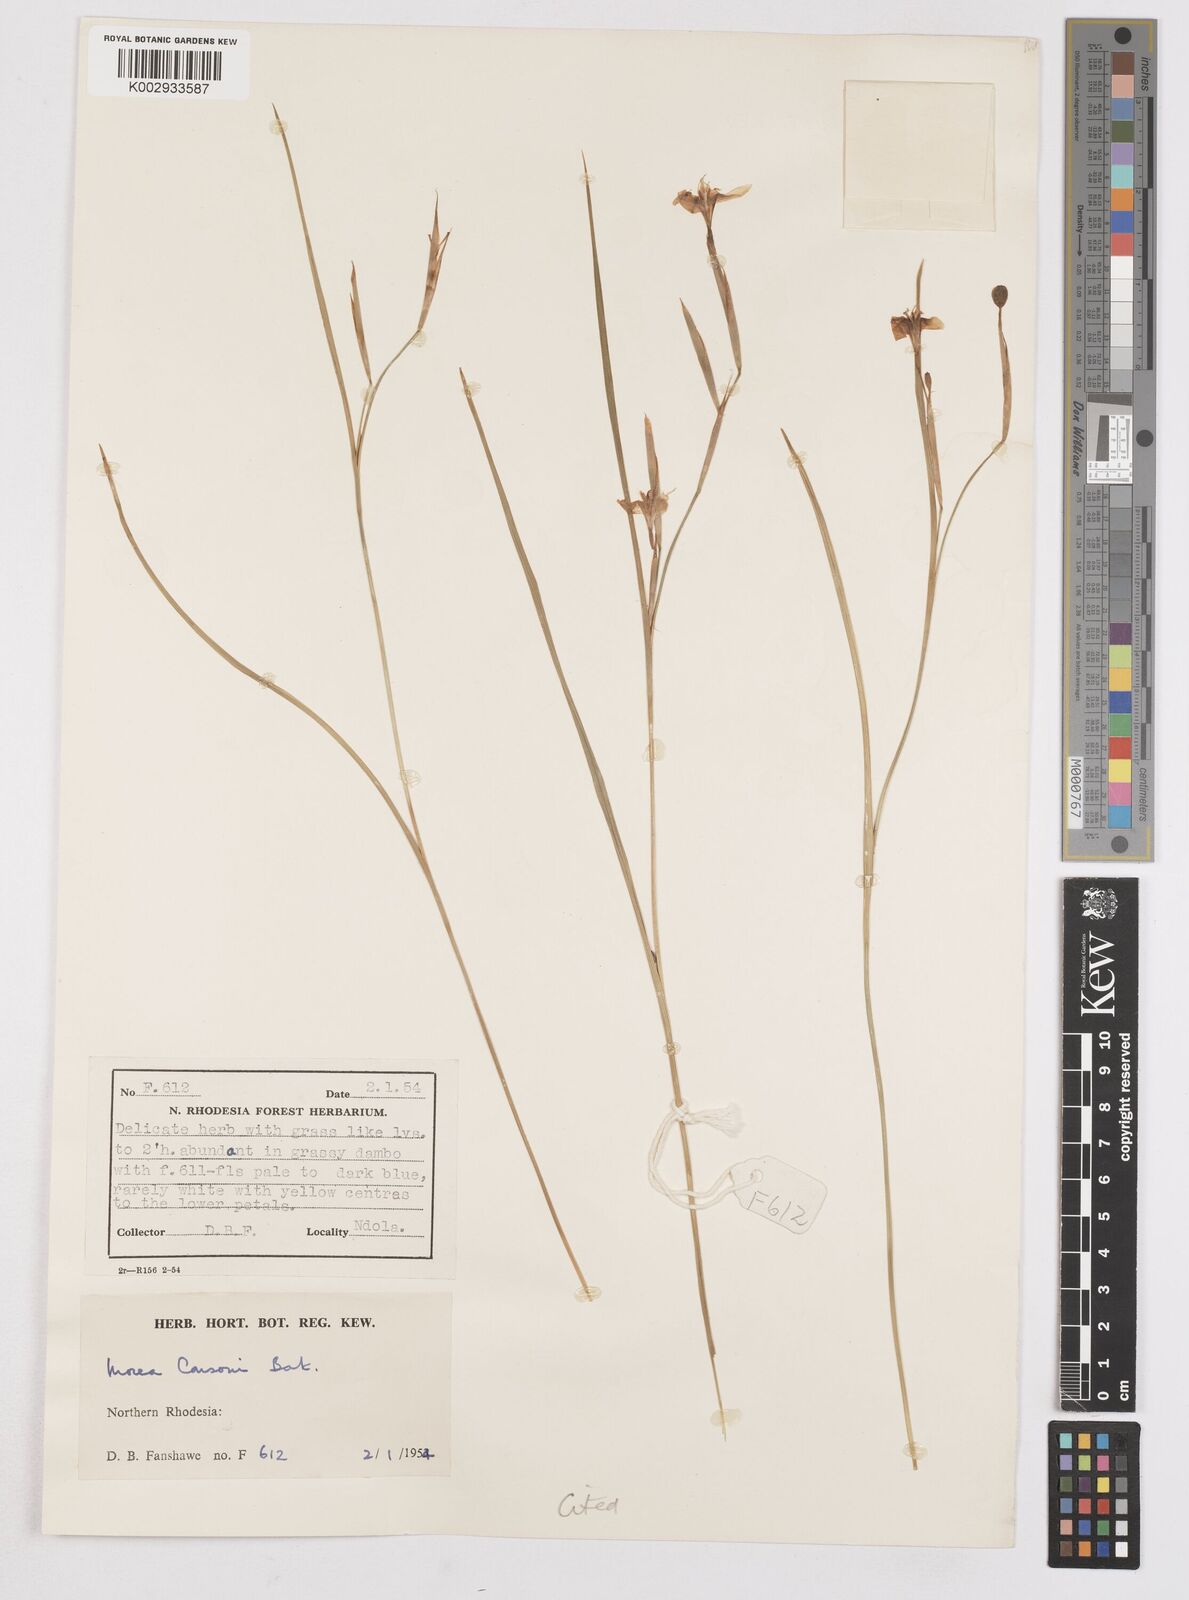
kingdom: Plantae
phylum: Tracheophyta
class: Liliopsida
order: Asparagales
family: Iridaceae
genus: Moraea
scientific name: Moraea carsonii
